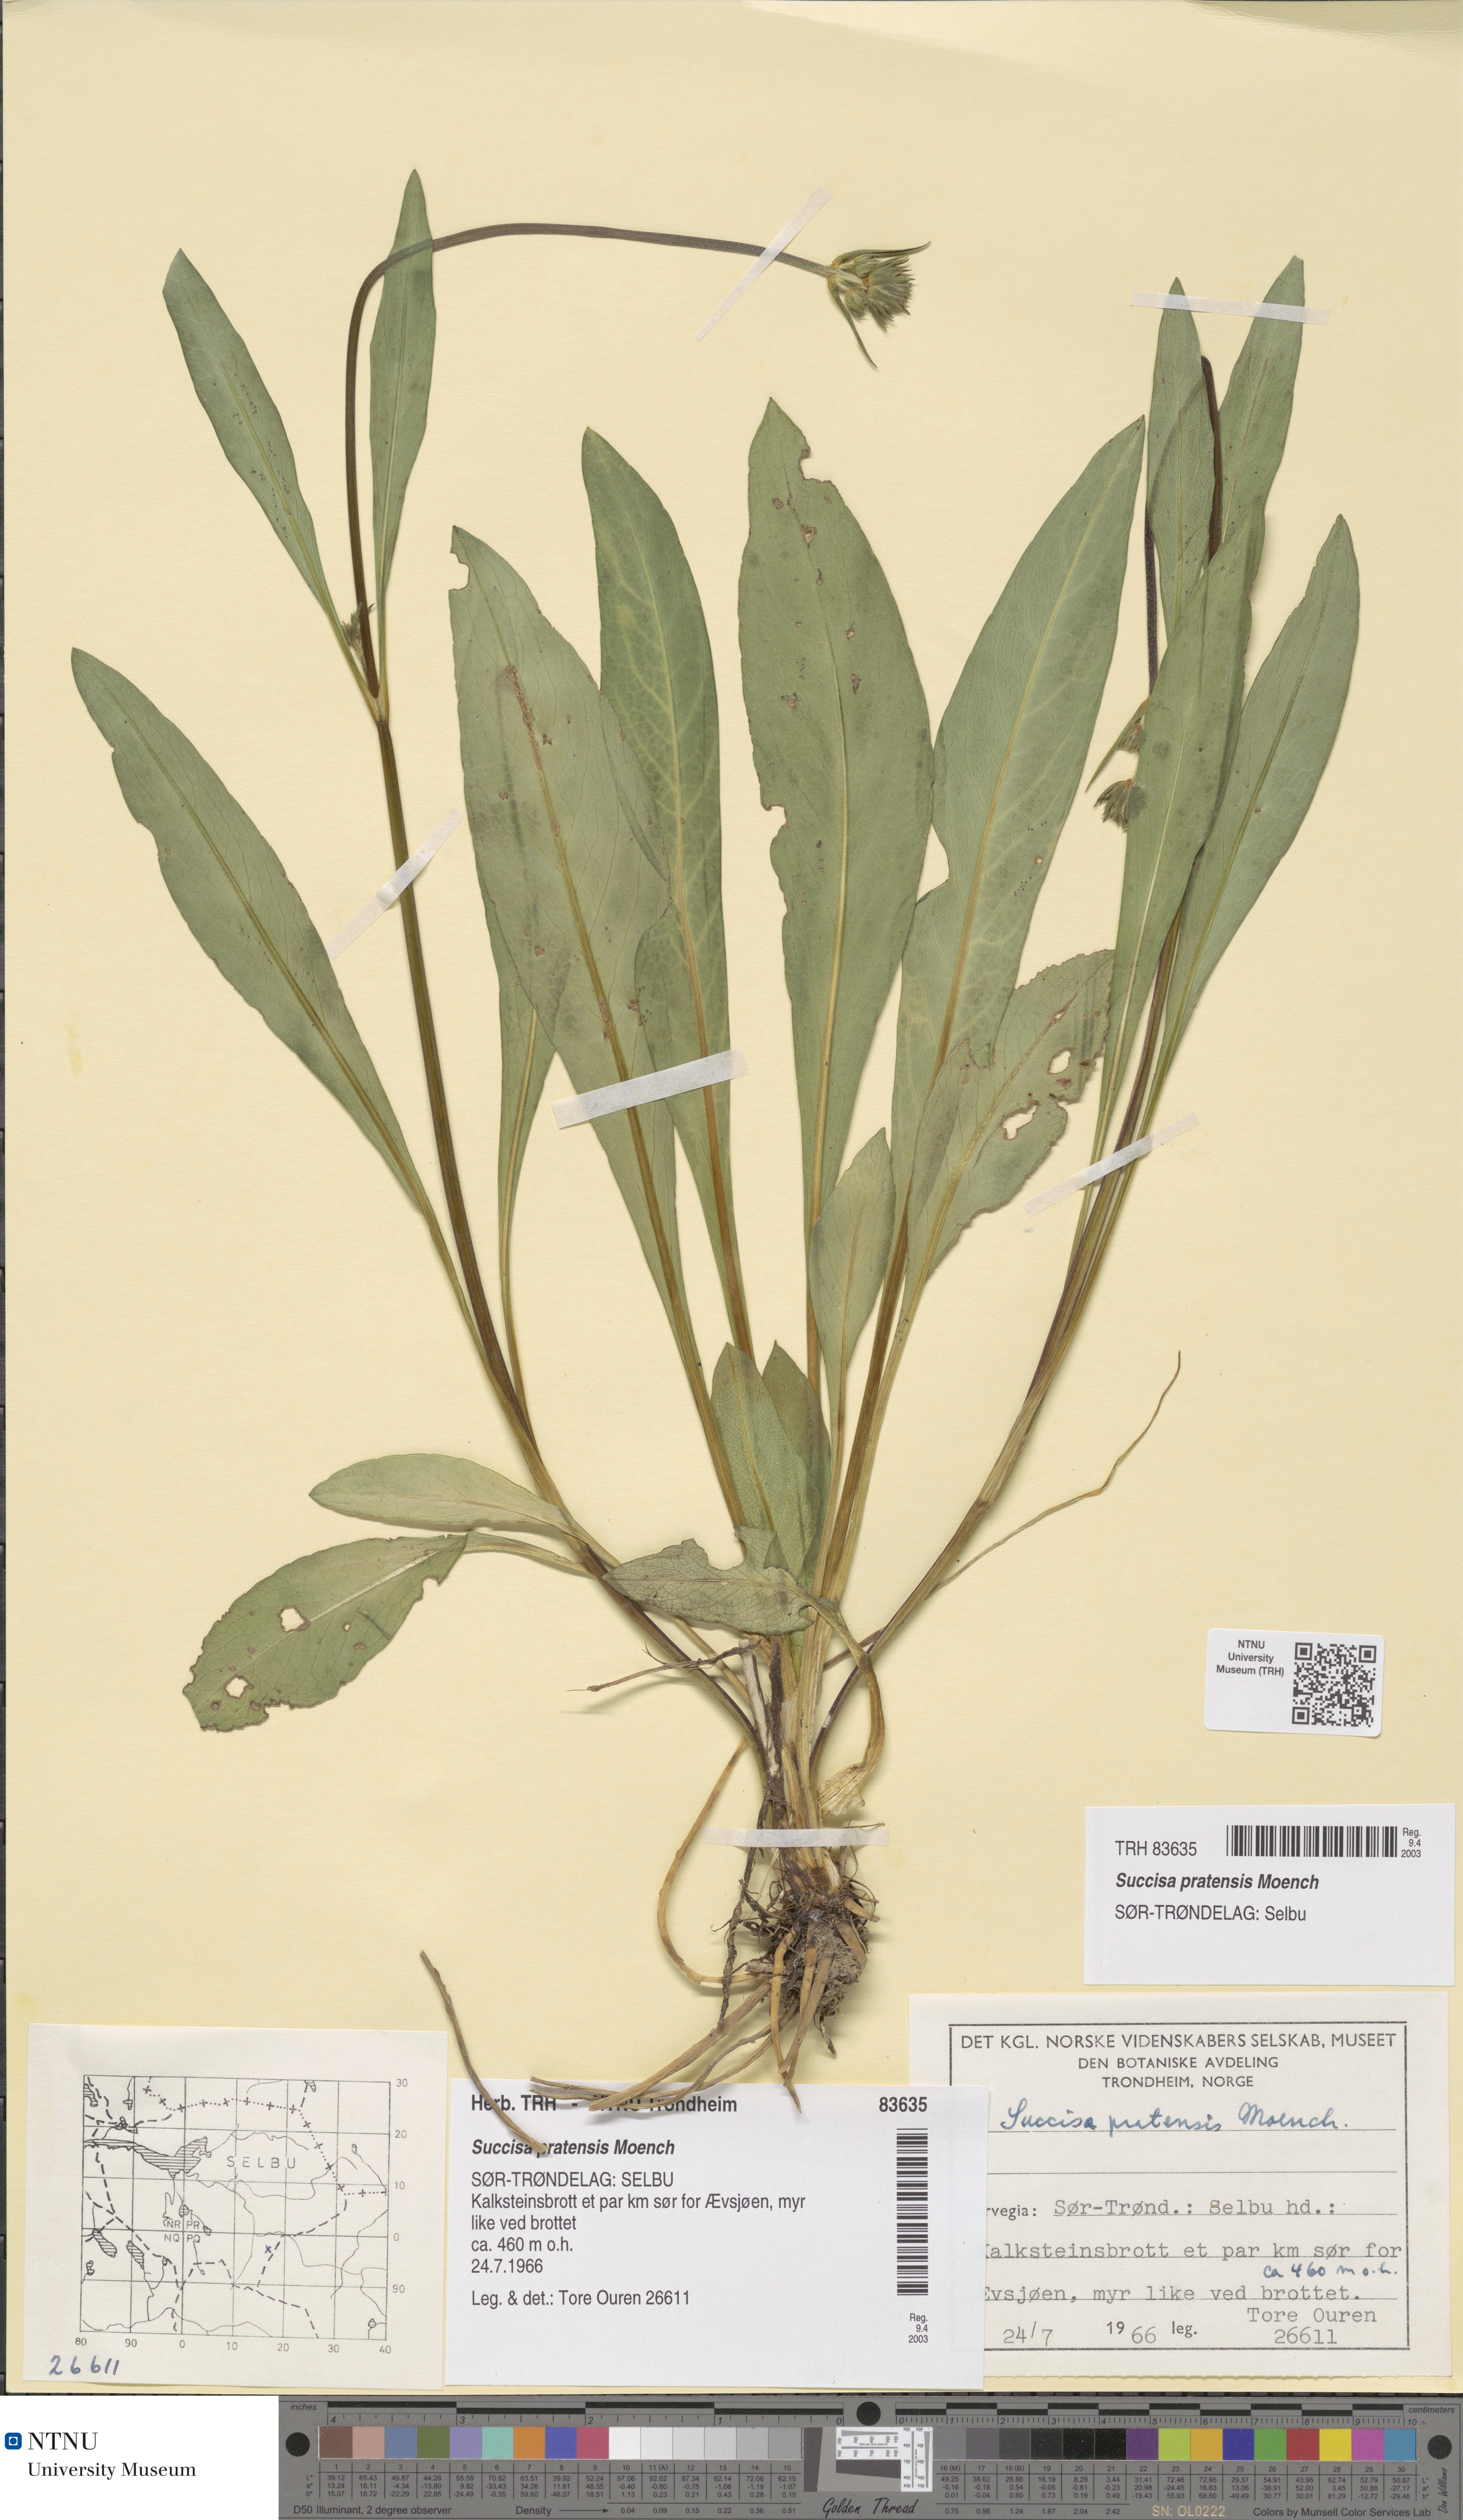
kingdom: Plantae
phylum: Tracheophyta
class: Magnoliopsida
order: Dipsacales
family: Caprifoliaceae
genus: Succisa
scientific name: Succisa pratensis
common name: Devil's-bit
